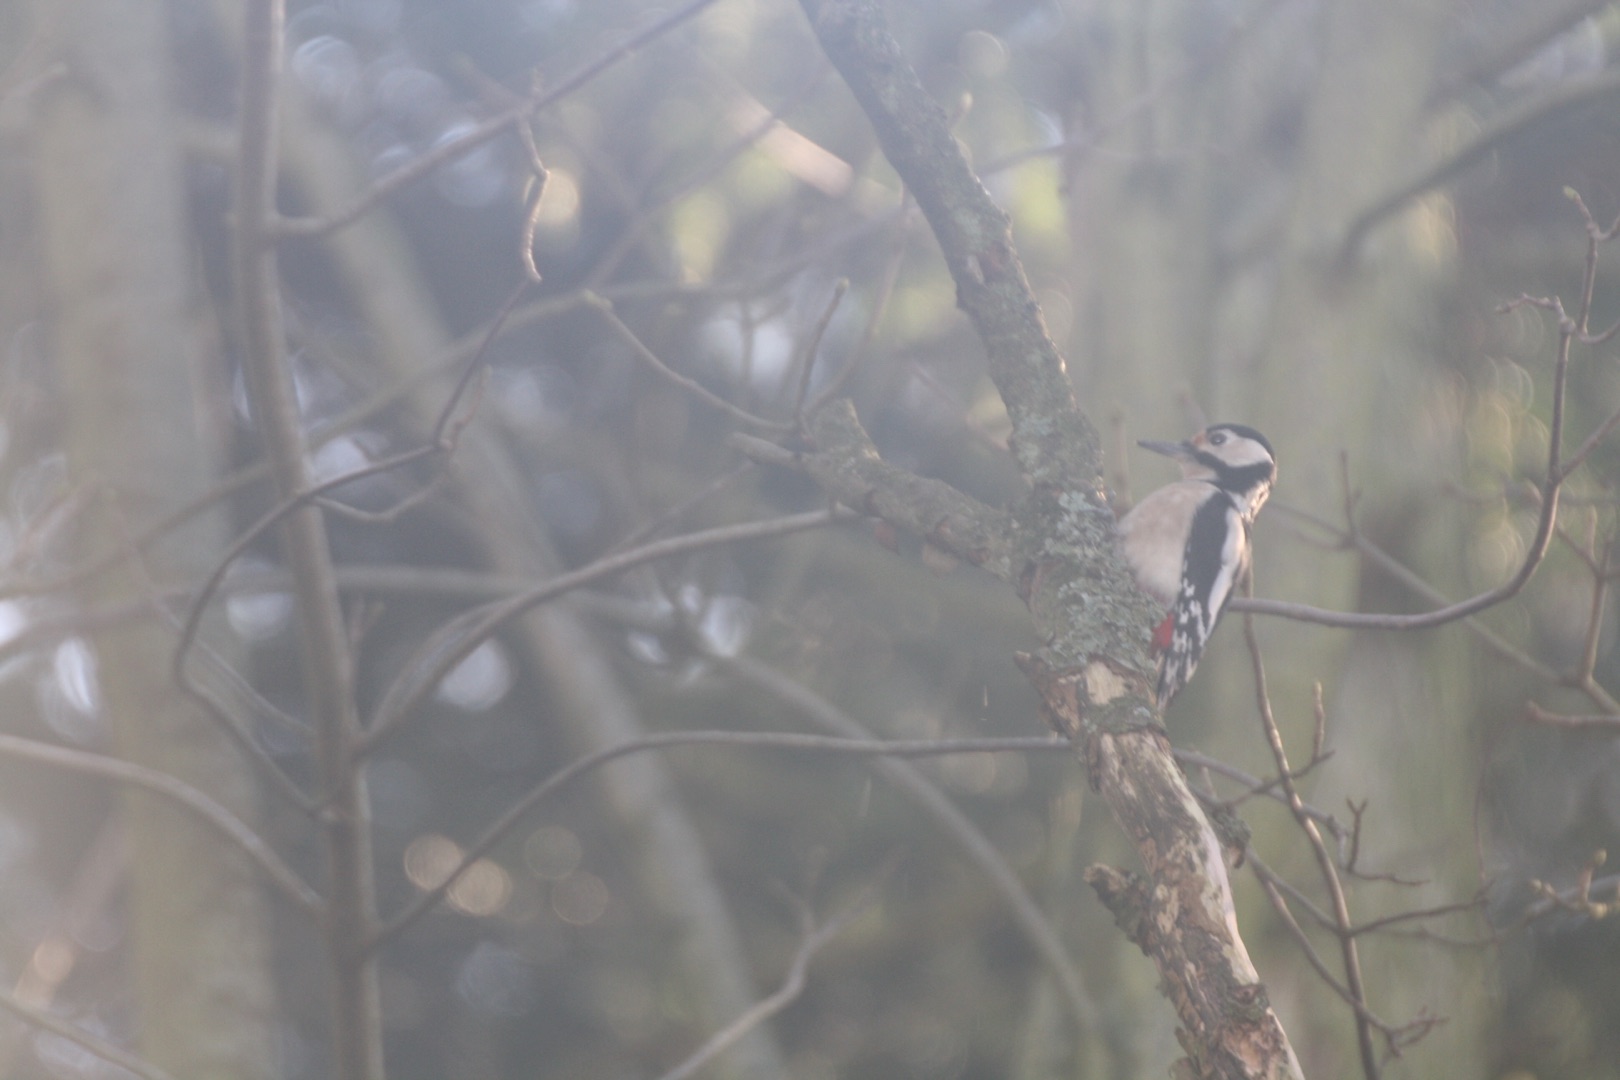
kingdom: Animalia
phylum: Chordata
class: Aves
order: Piciformes
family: Picidae
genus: Dendrocopos
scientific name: Dendrocopos major
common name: Stor flagspætte
